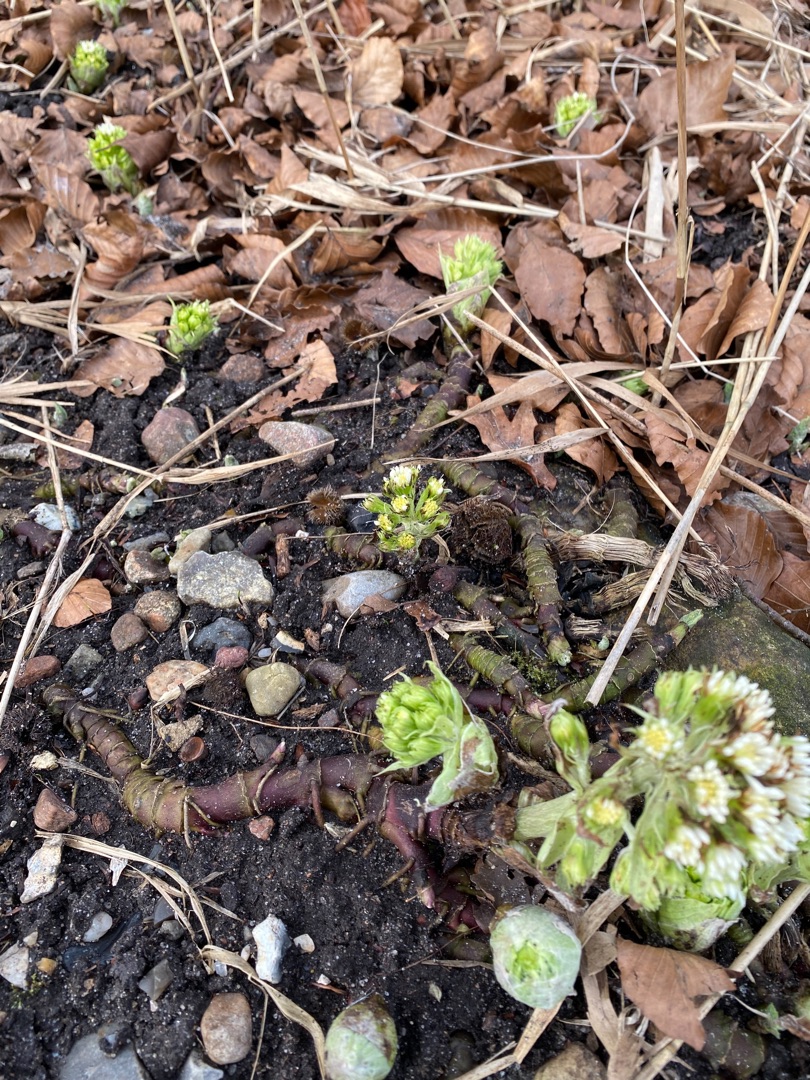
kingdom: Plantae
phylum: Tracheophyta
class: Magnoliopsida
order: Asterales
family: Asteraceae
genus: Petasites
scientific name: Petasites albus
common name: Hvid hestehov
